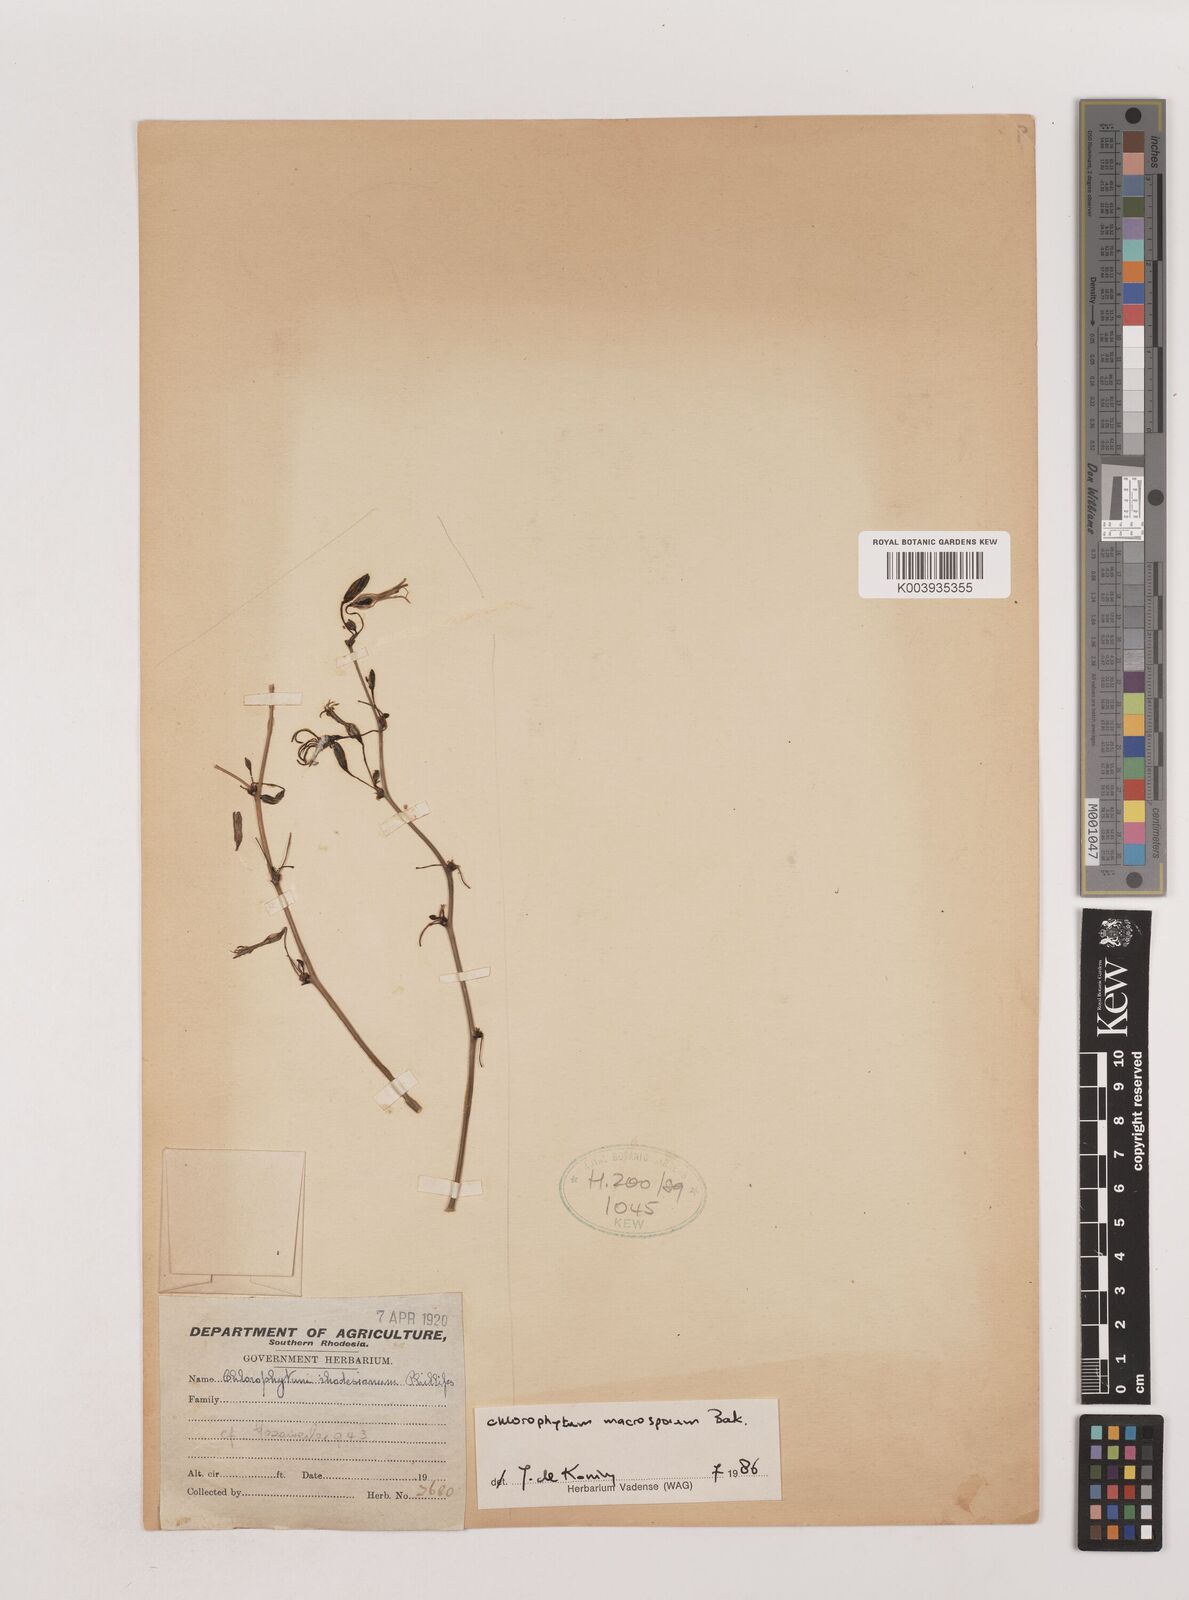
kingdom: Plantae
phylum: Tracheophyta
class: Liliopsida
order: Asparagales
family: Asparagaceae
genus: Chlorophytum
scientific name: Chlorophytum macrosporum
